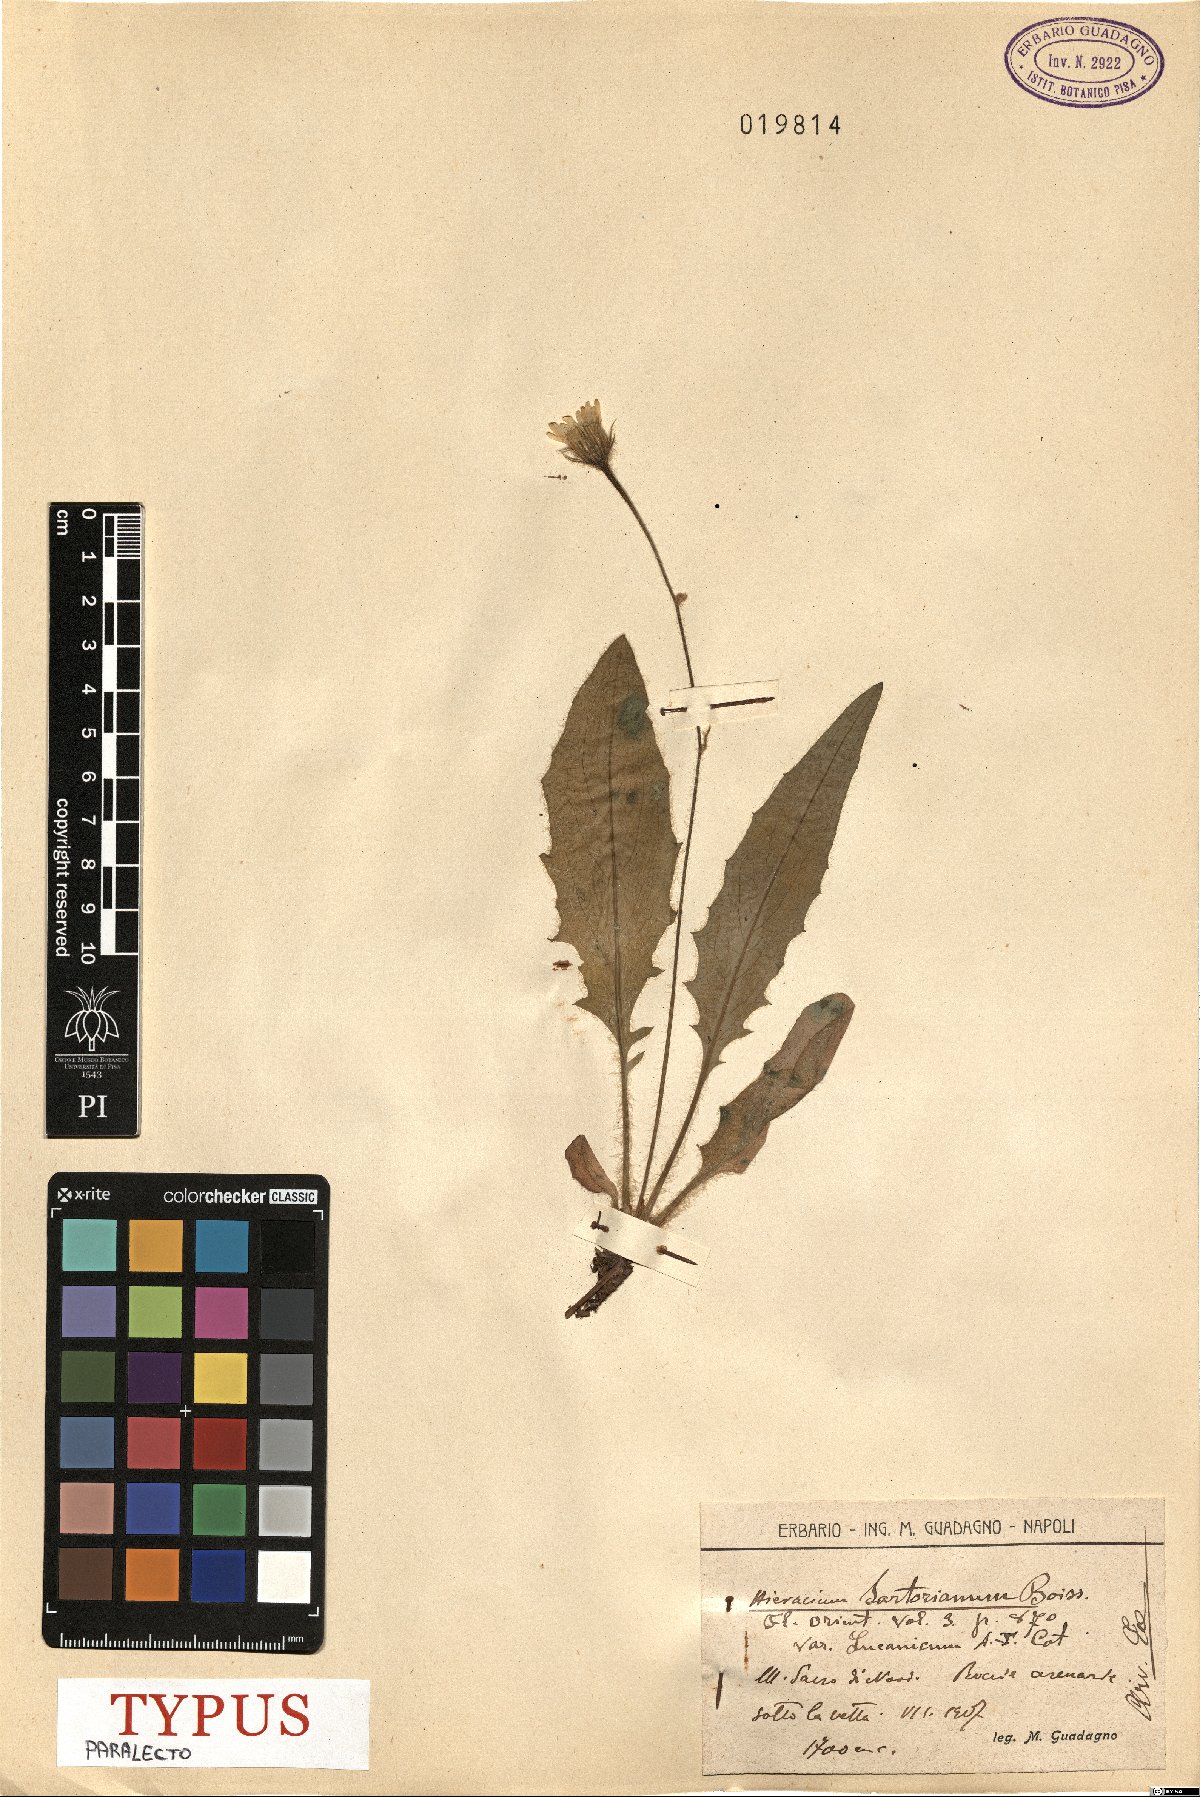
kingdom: Plantae
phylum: Tracheophyta
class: Magnoliopsida
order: Asterales
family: Asteraceae
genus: Hieracium
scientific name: Hieracium hypochoeroides
